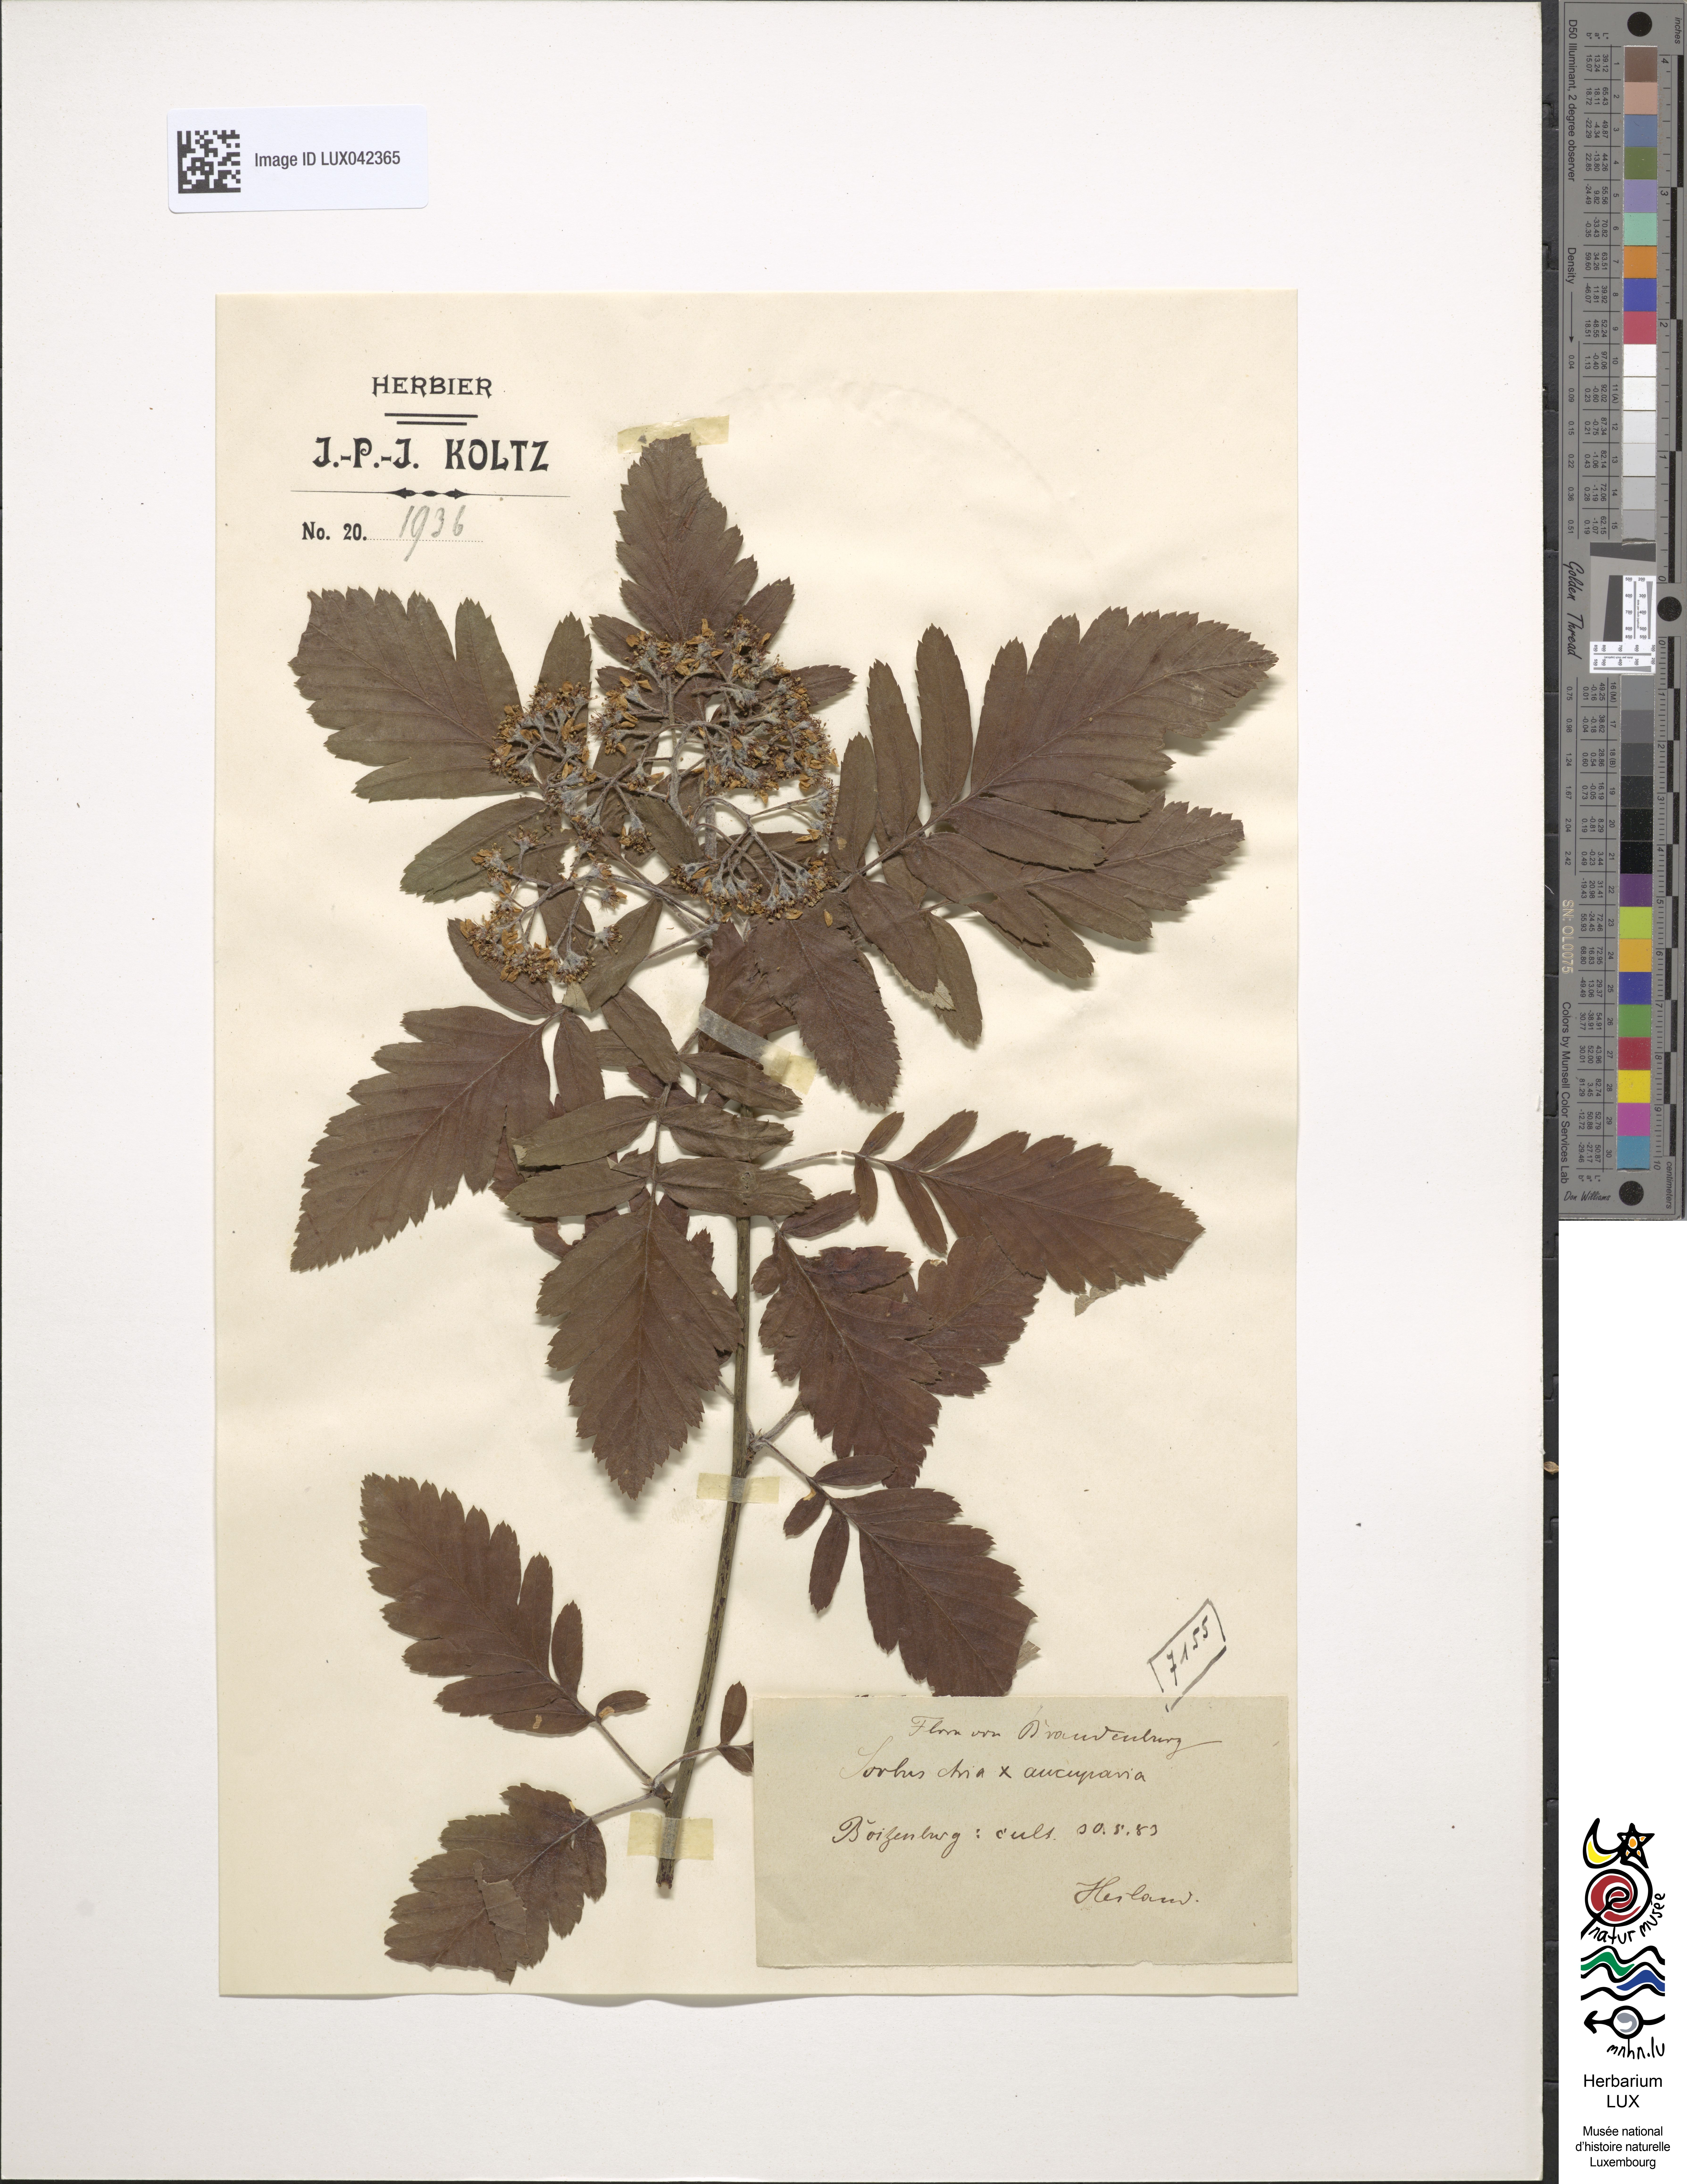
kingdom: Plantae
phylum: Tracheophyta
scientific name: Tracheophyta
